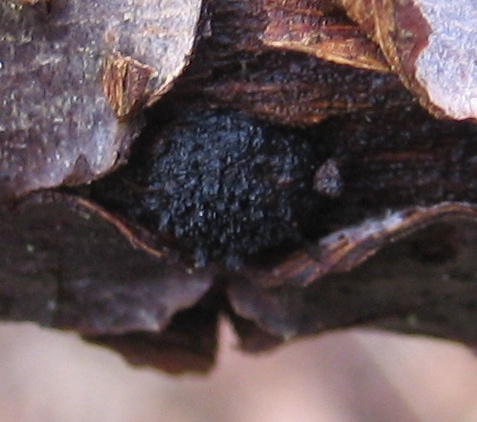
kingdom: Fungi
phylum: Ascomycota
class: Sordariomycetes
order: Xylariales
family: Diatrypaceae
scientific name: Diatrypaceae
